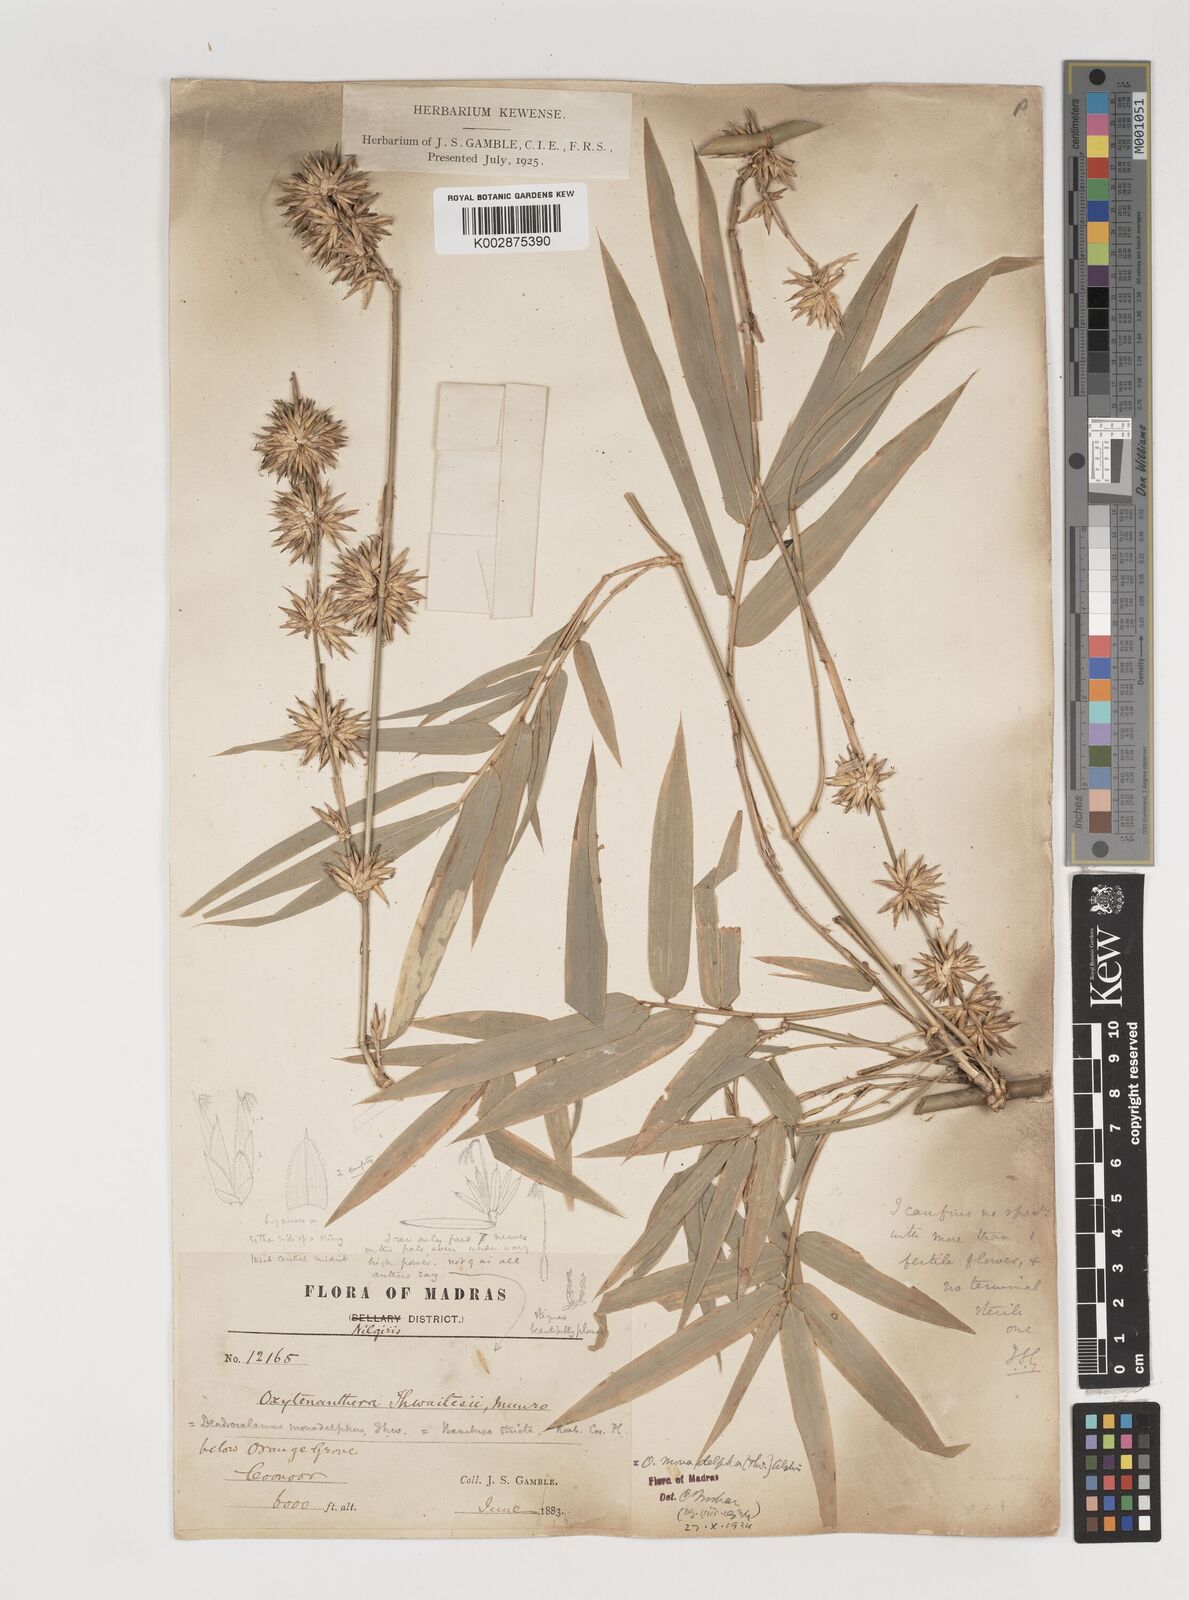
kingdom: Plantae
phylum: Tracheophyta
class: Liliopsida
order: Poales
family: Poaceae
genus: Pseudoxytenanthera
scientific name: Pseudoxytenanthera monadelpha
